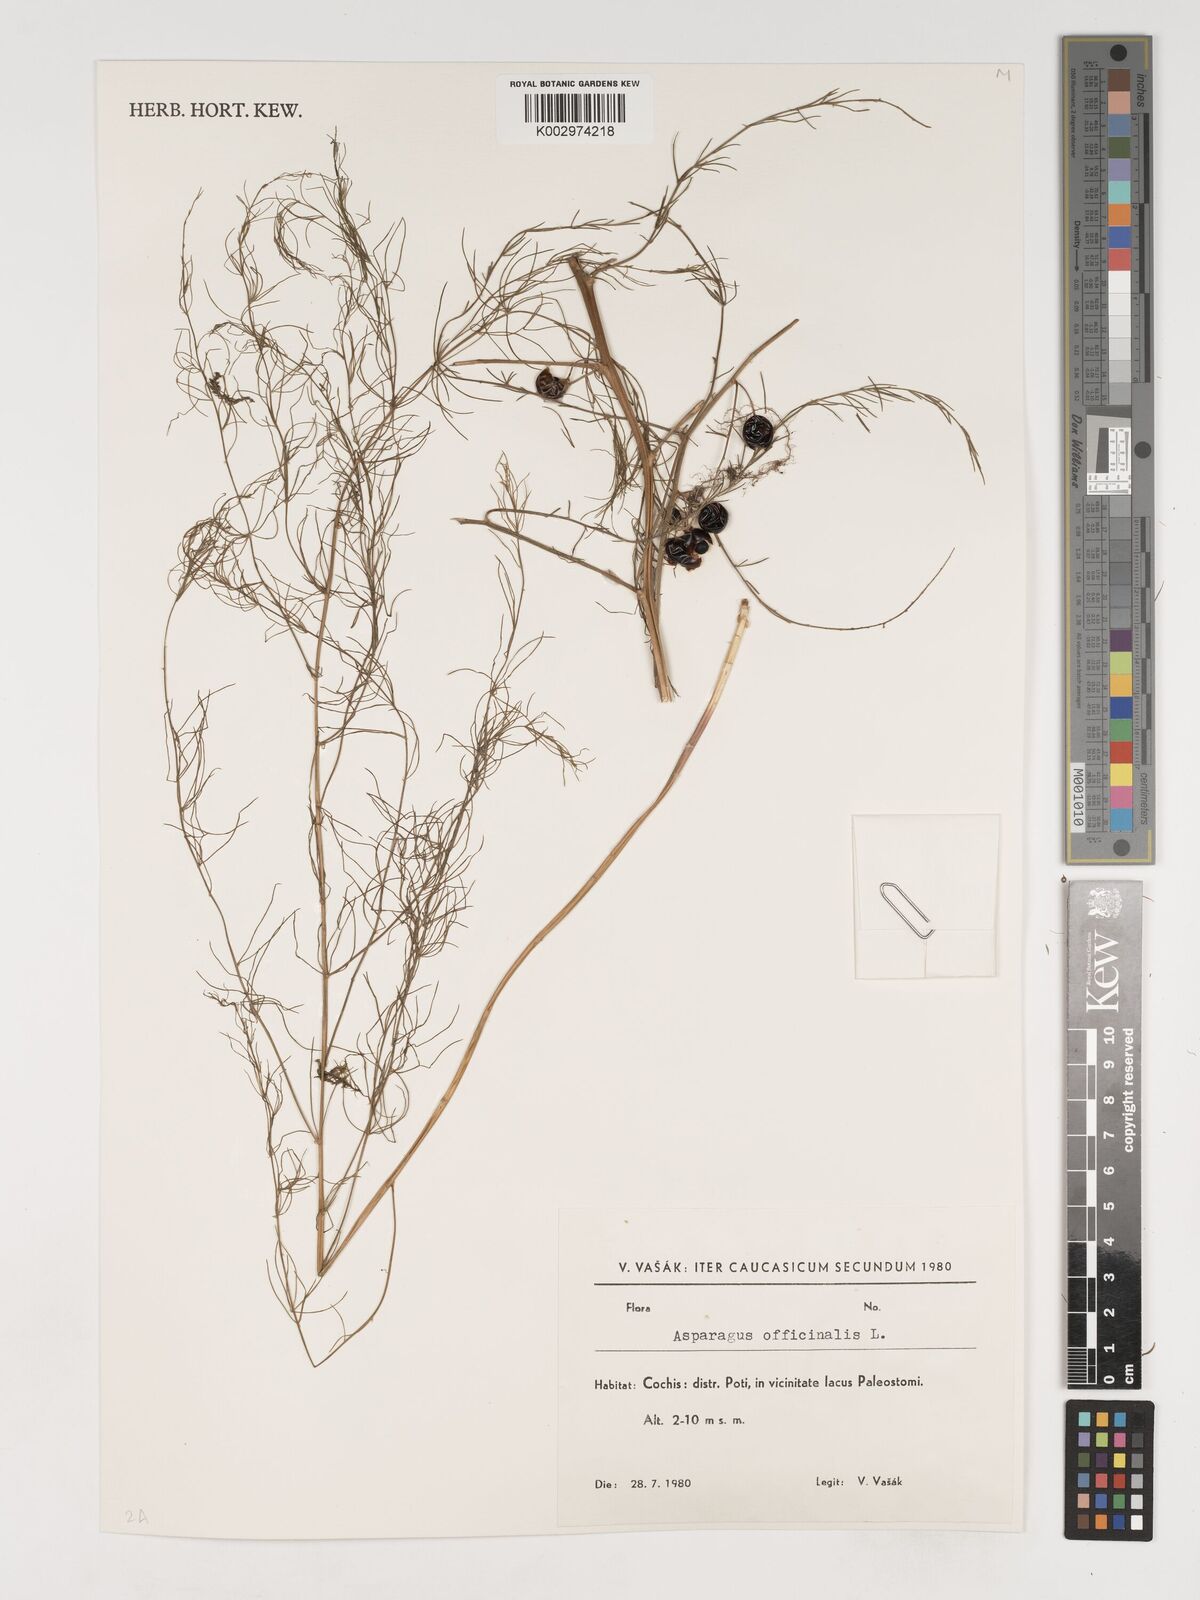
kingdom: Plantae
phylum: Tracheophyta
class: Liliopsida
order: Asparagales
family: Asparagaceae
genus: Asparagus
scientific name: Asparagus officinalis
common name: Garden asparagus
